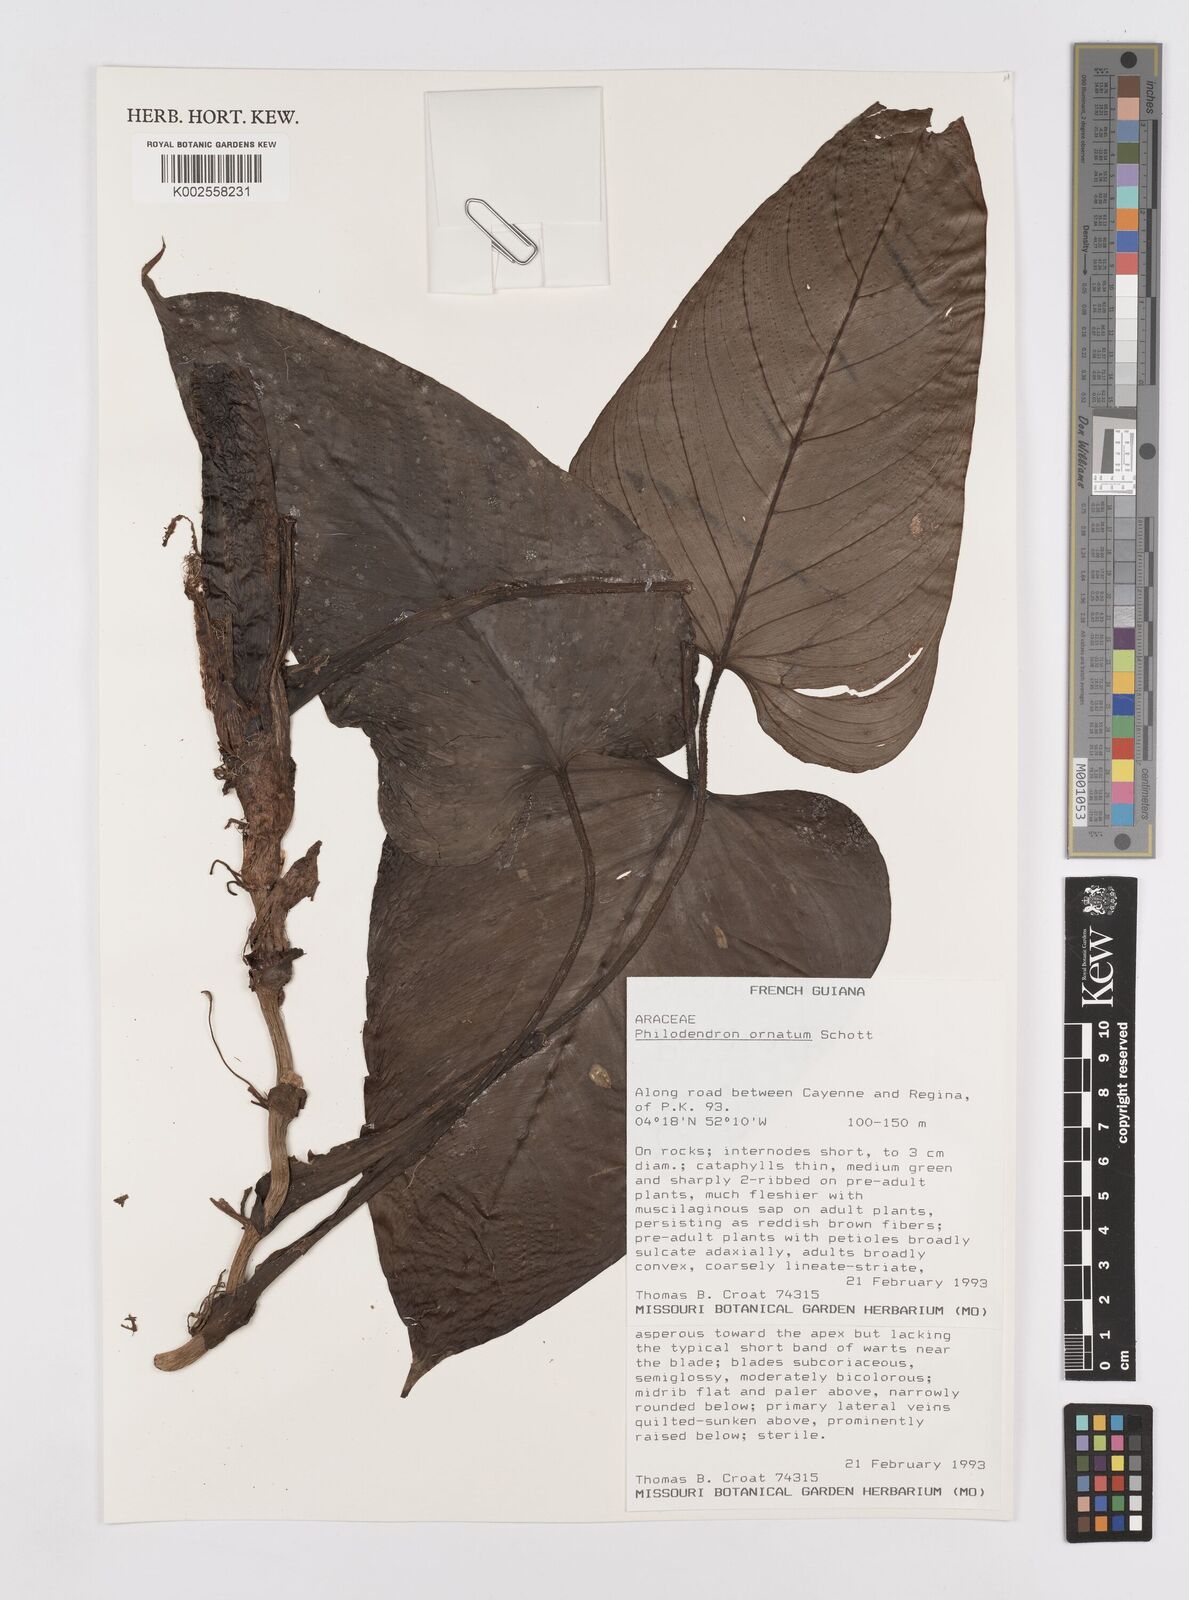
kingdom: Plantae
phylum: Tracheophyta
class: Liliopsida
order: Alismatales
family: Araceae
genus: Philodendron
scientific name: Philodendron ornatum
